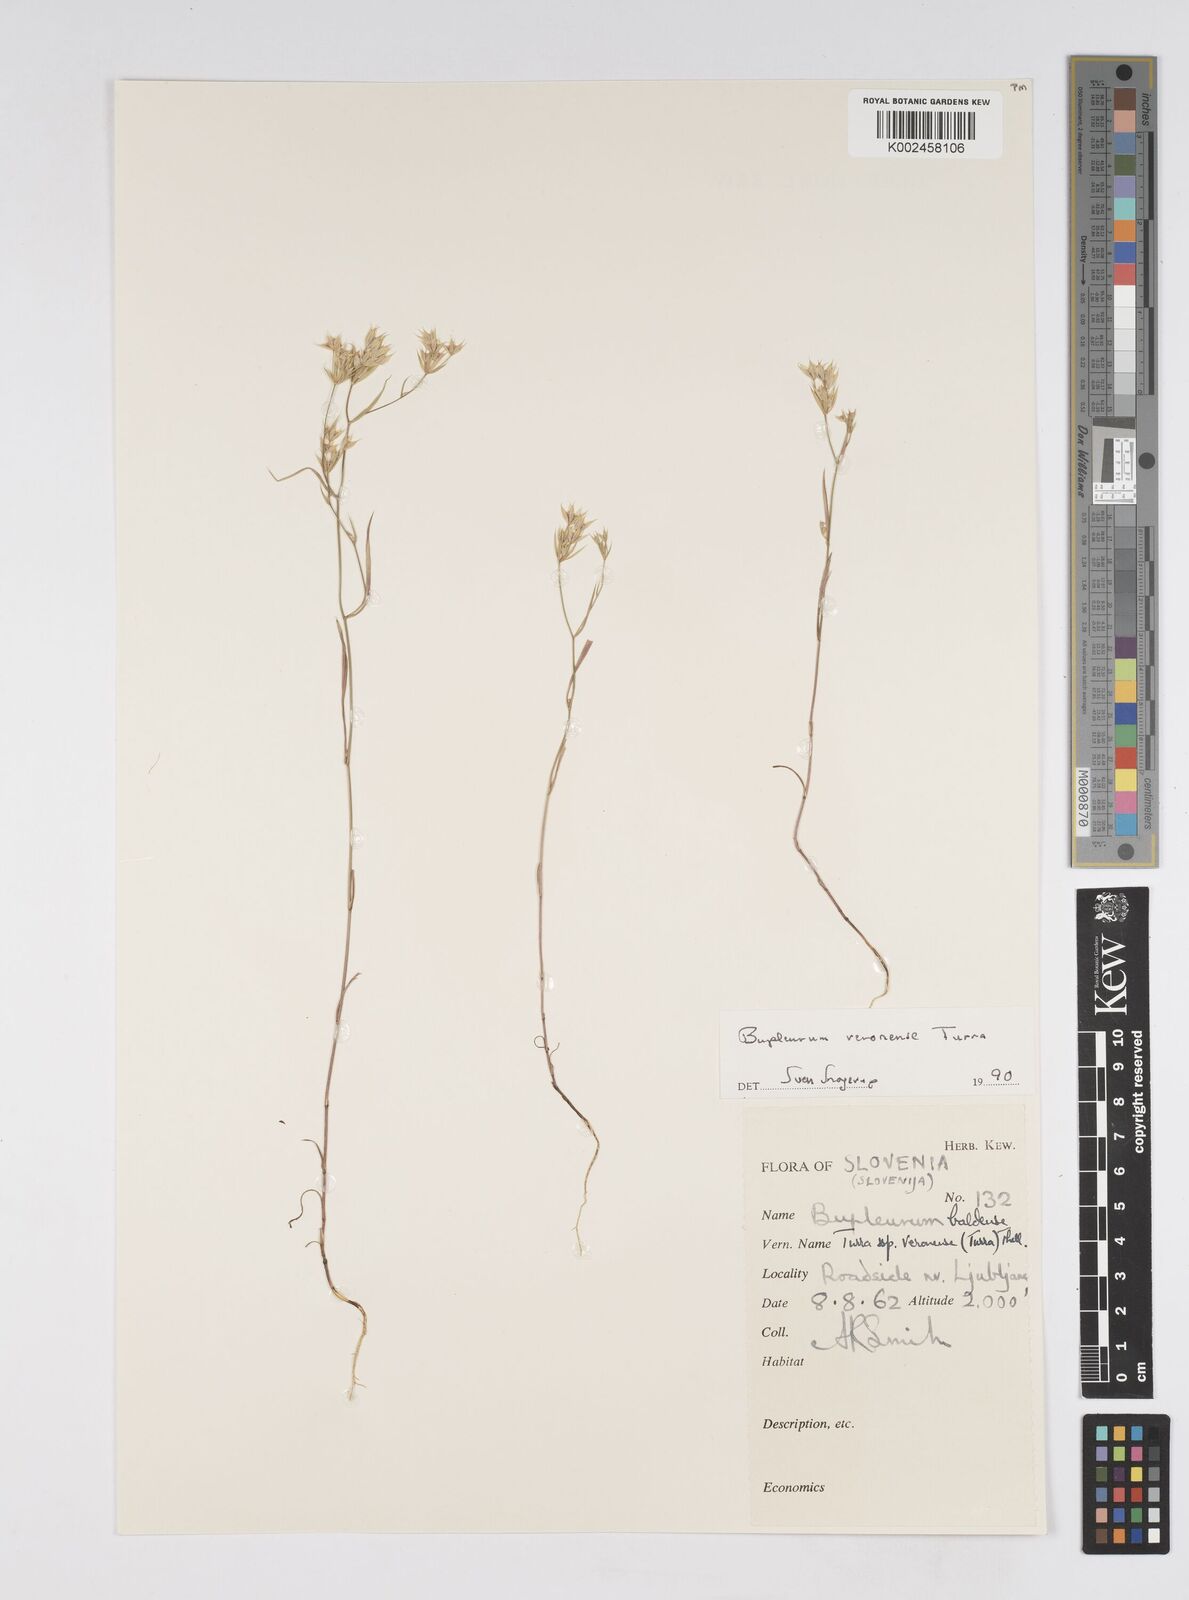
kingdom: Plantae
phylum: Tracheophyta
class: Magnoliopsida
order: Apiales
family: Apiaceae
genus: Bupleurum
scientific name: Bupleurum baldense
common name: Small hare's-ear
